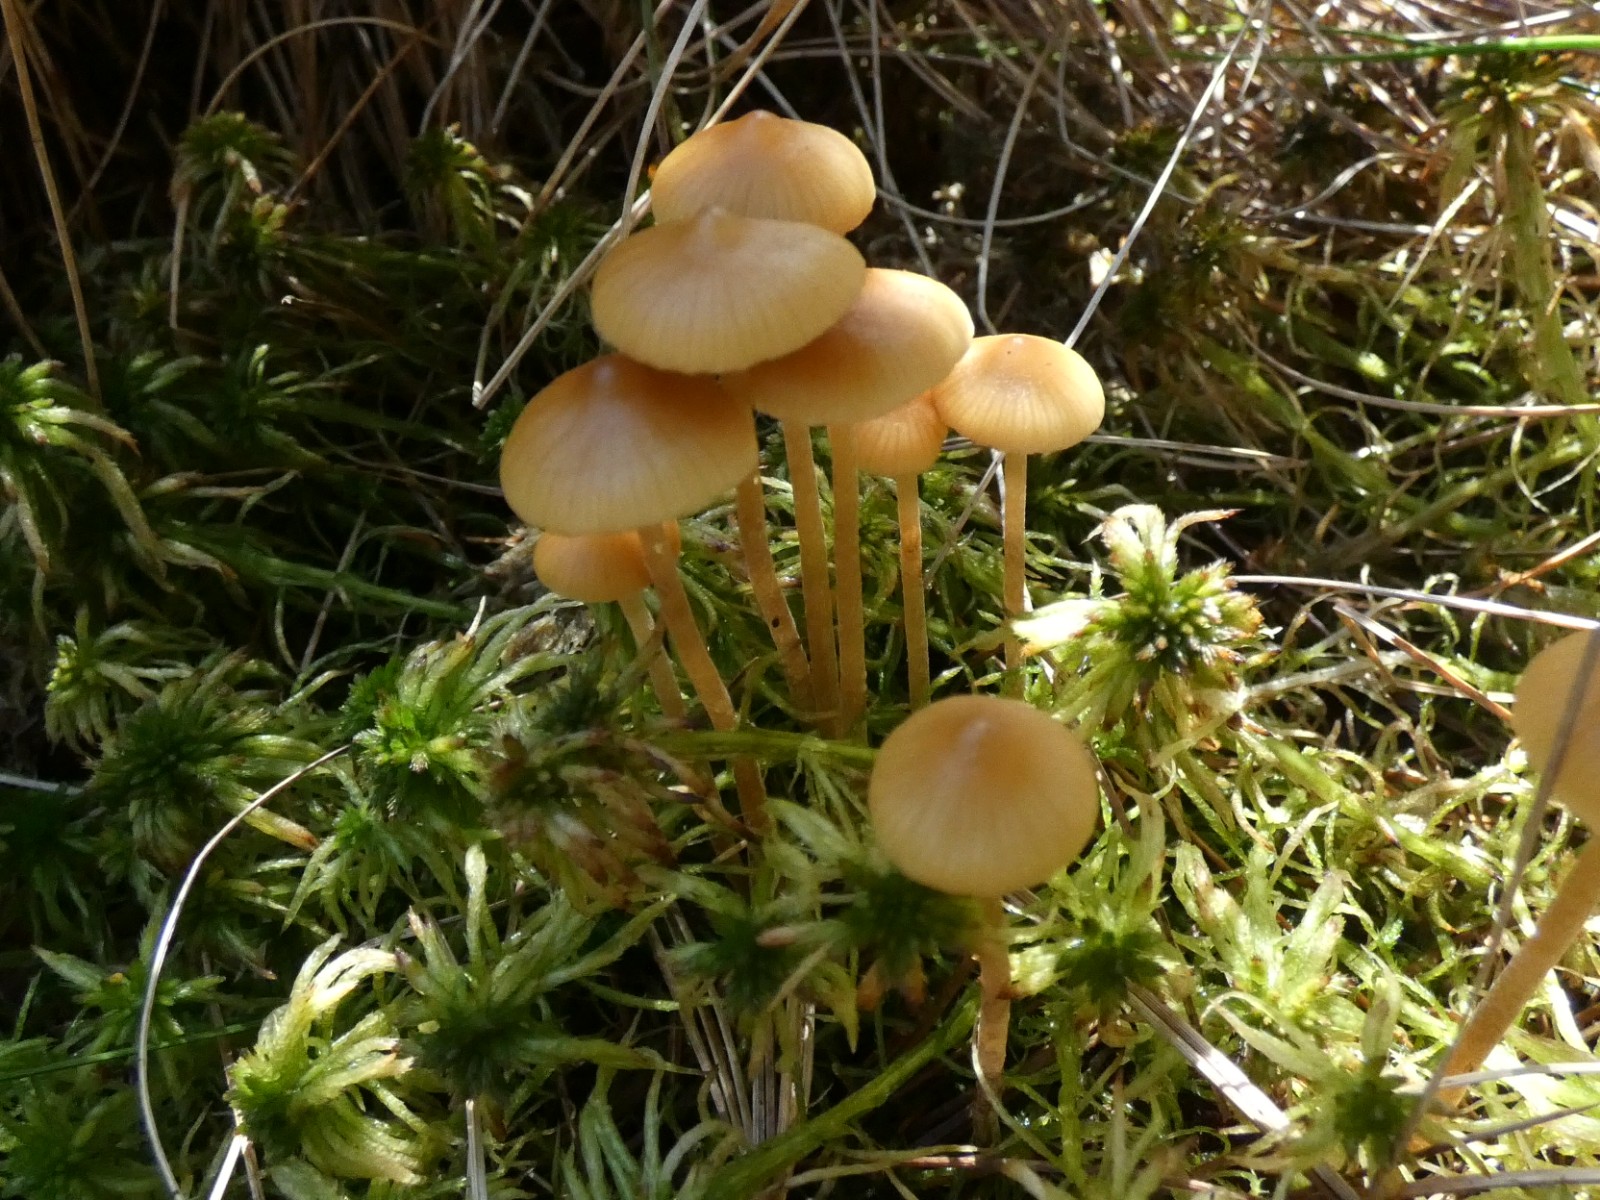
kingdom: Fungi
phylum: Basidiomycota
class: Agaricomycetes
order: Agaricales
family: Hymenogastraceae
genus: Galerina
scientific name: Galerina hybrida
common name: hængesæk-hjelmhat
